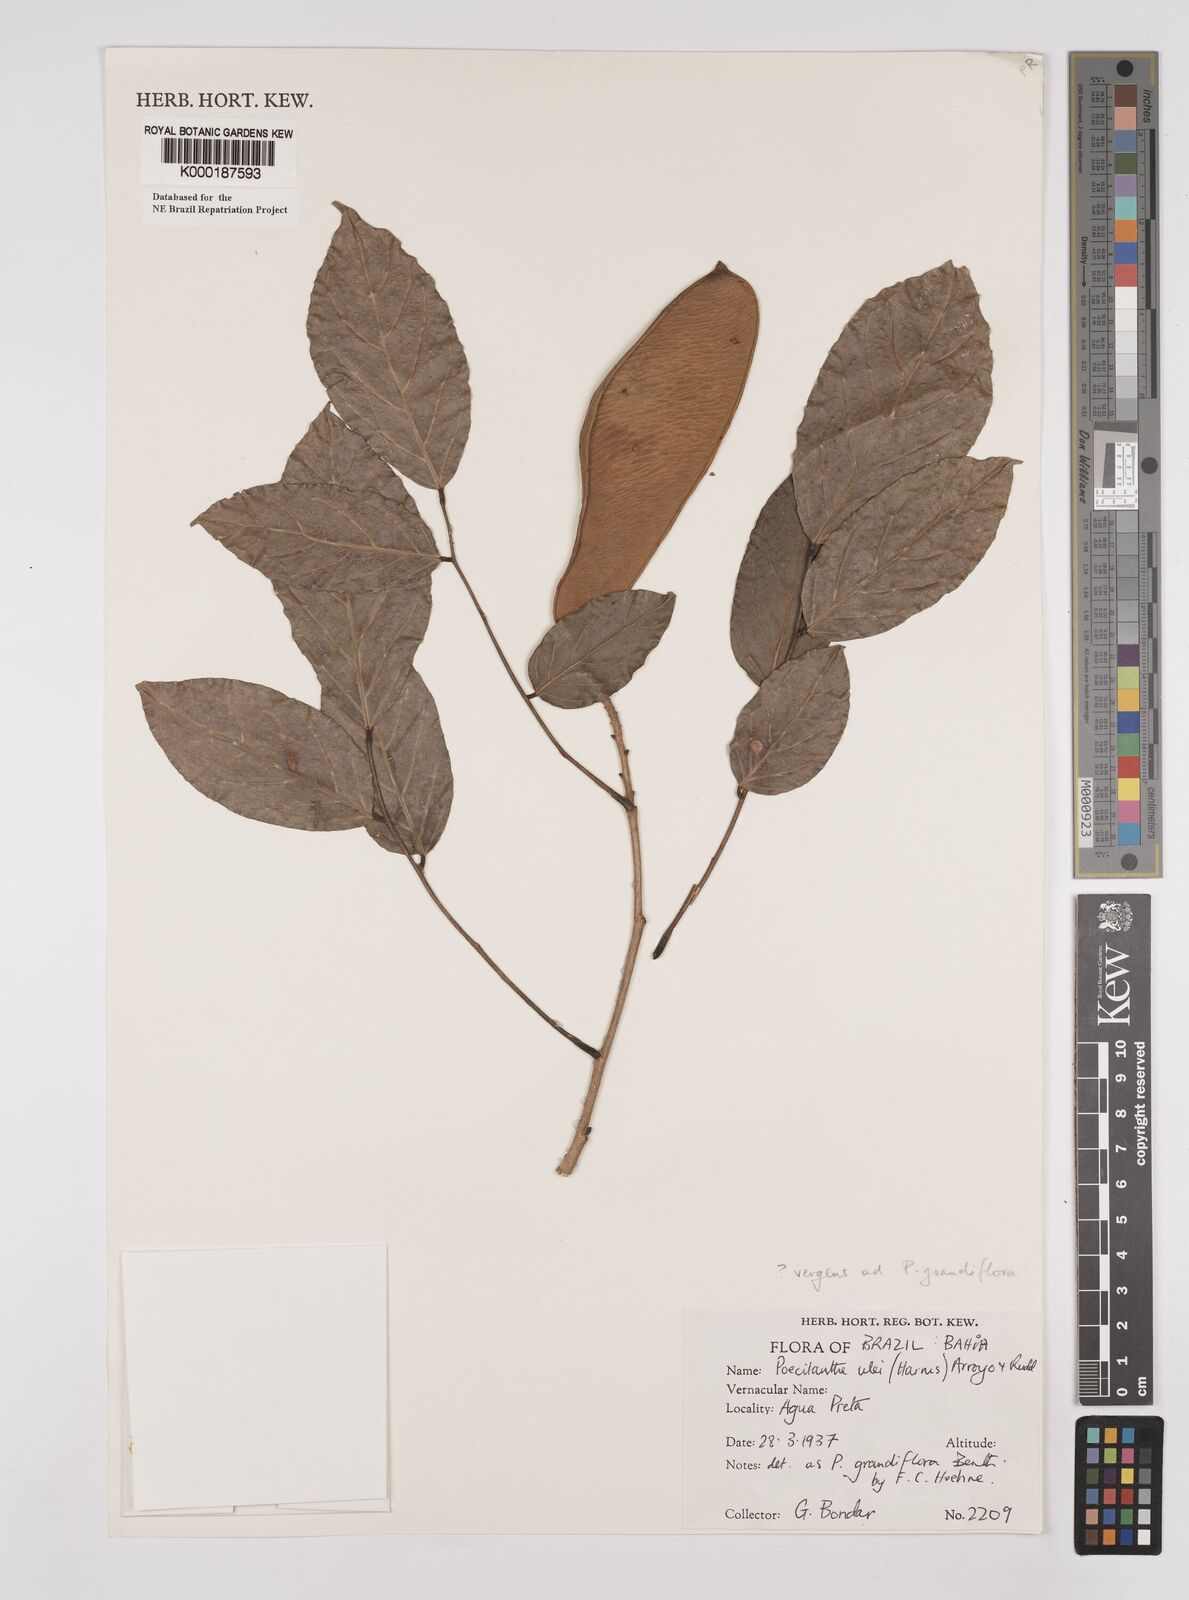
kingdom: Plantae
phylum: Tracheophyta
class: Magnoliopsida
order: Fabales
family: Fabaceae
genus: Poecilanthe
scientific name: Poecilanthe ulei
